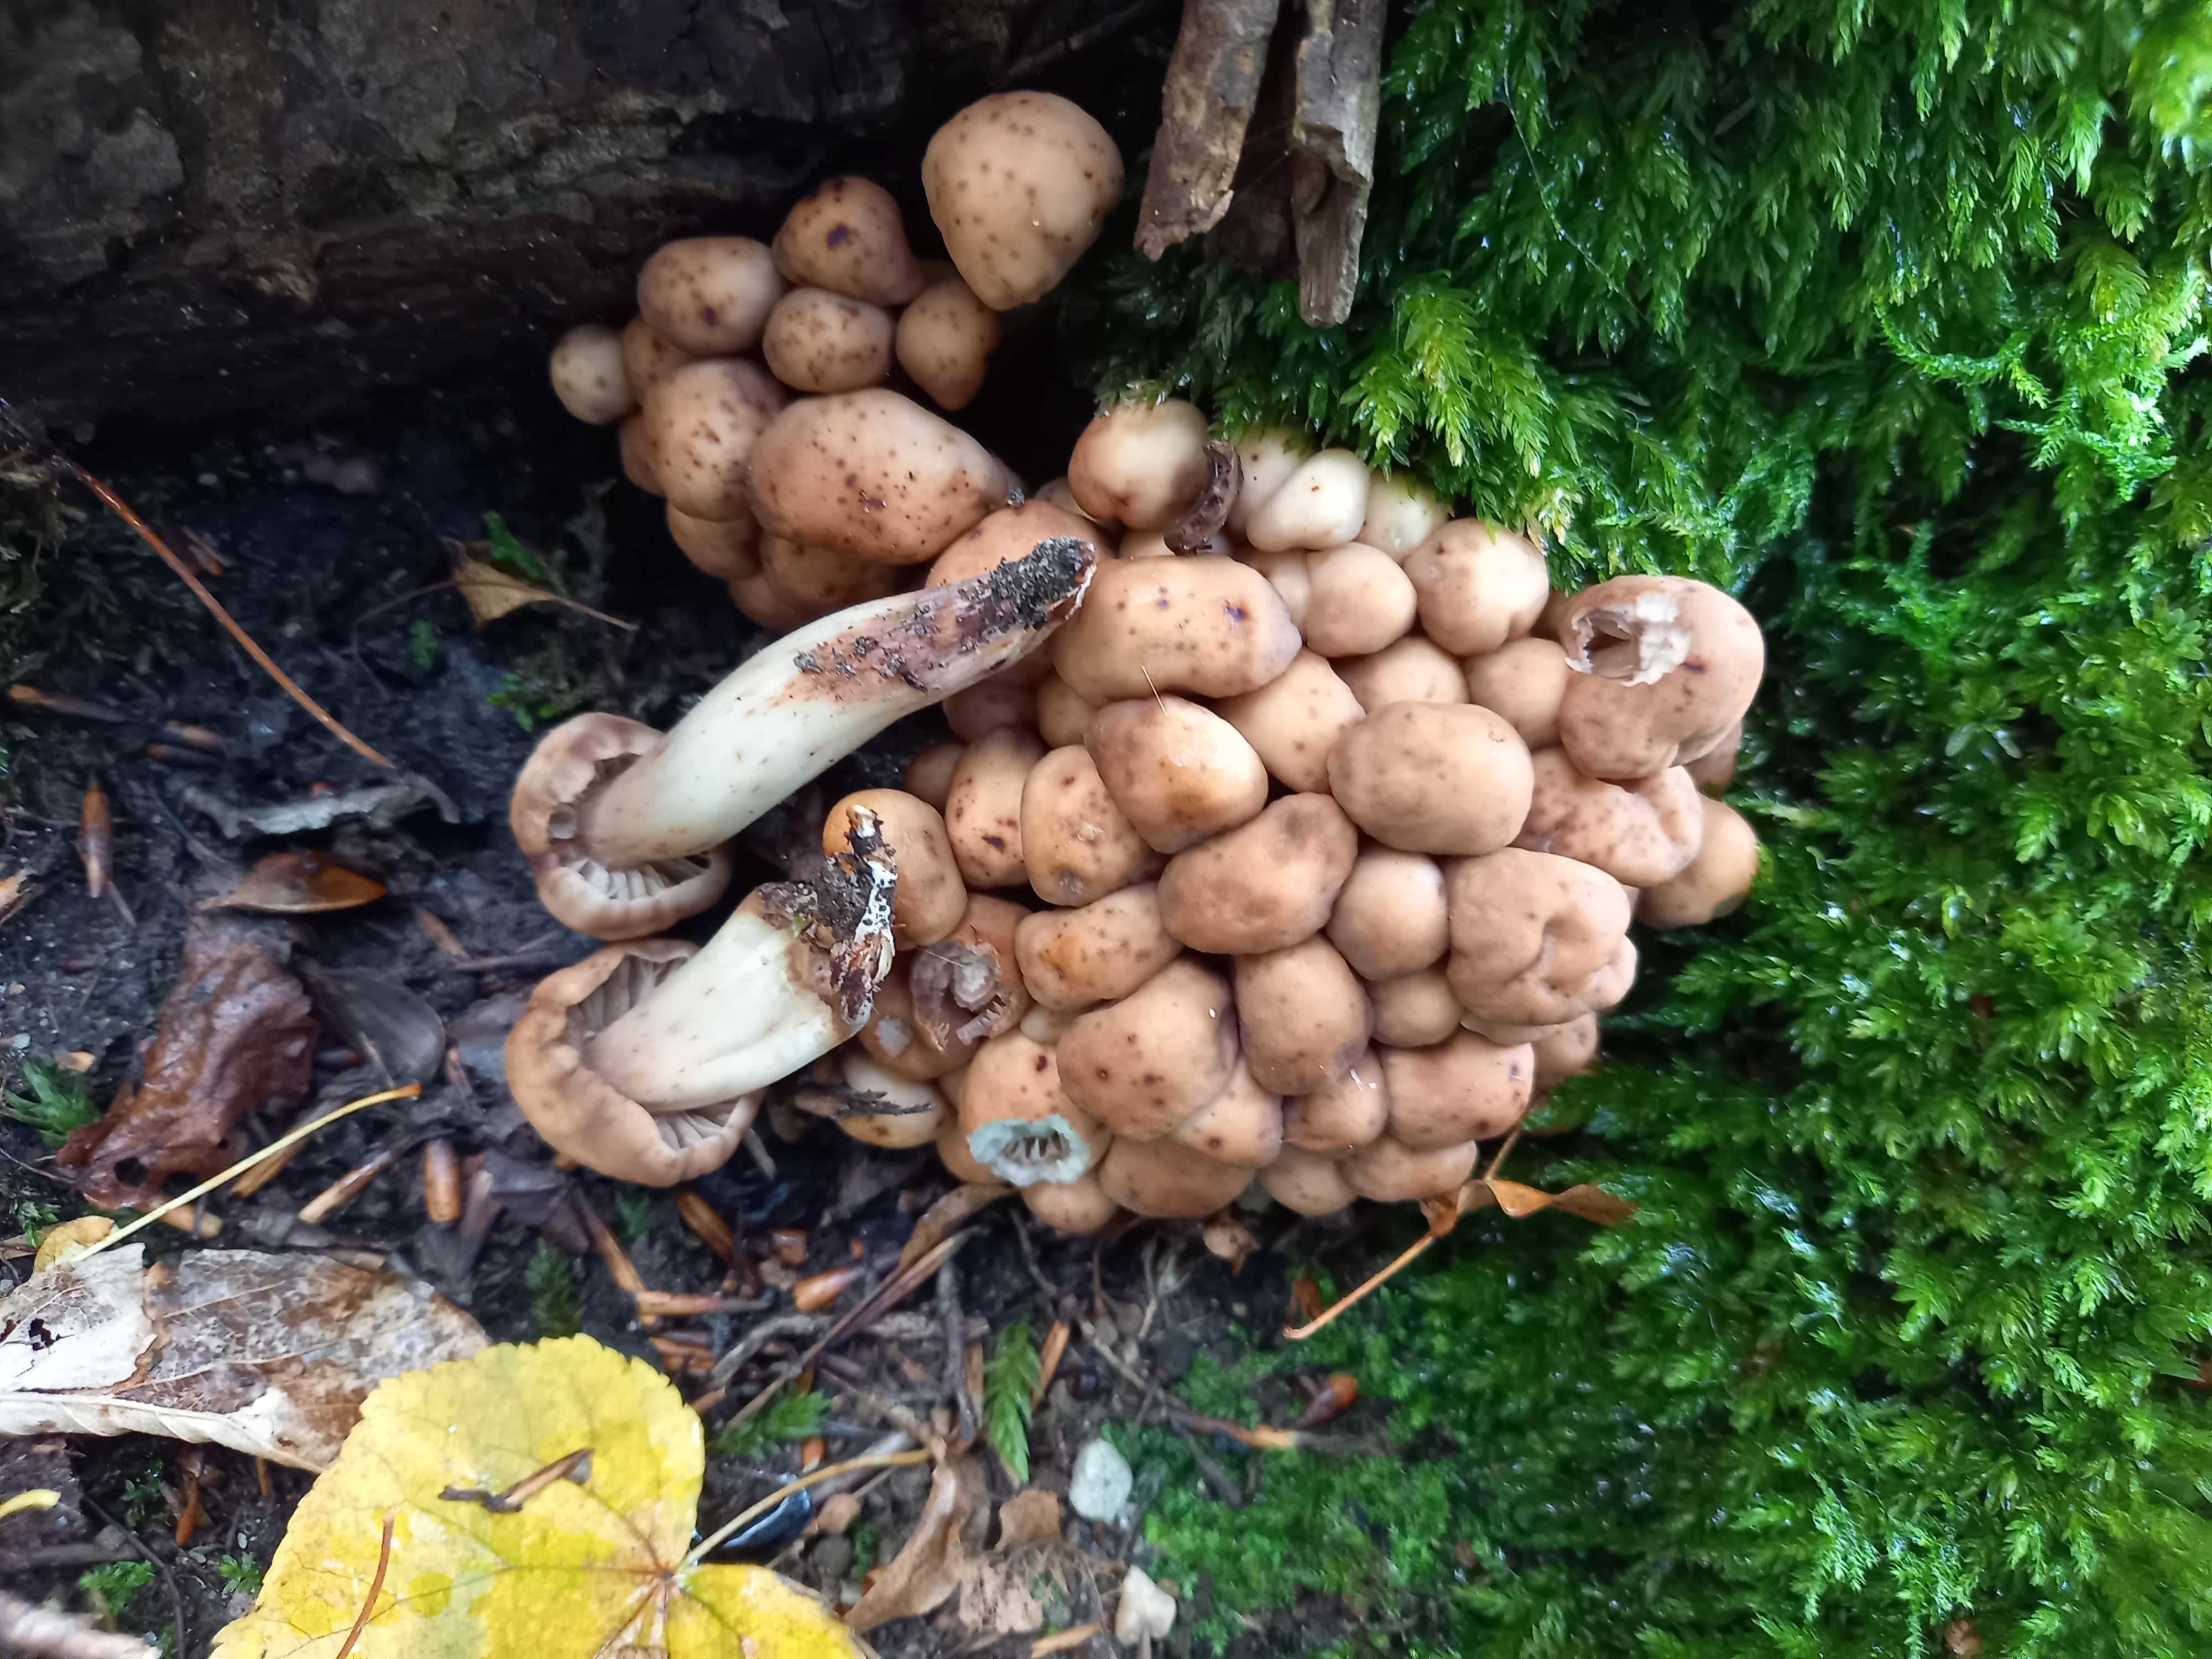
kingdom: Fungi
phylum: Basidiomycota
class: Agaricomycetes
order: Agaricales
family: Omphalotaceae
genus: Gymnopus
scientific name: Gymnopus fusipes
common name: tenstokket fladhat
